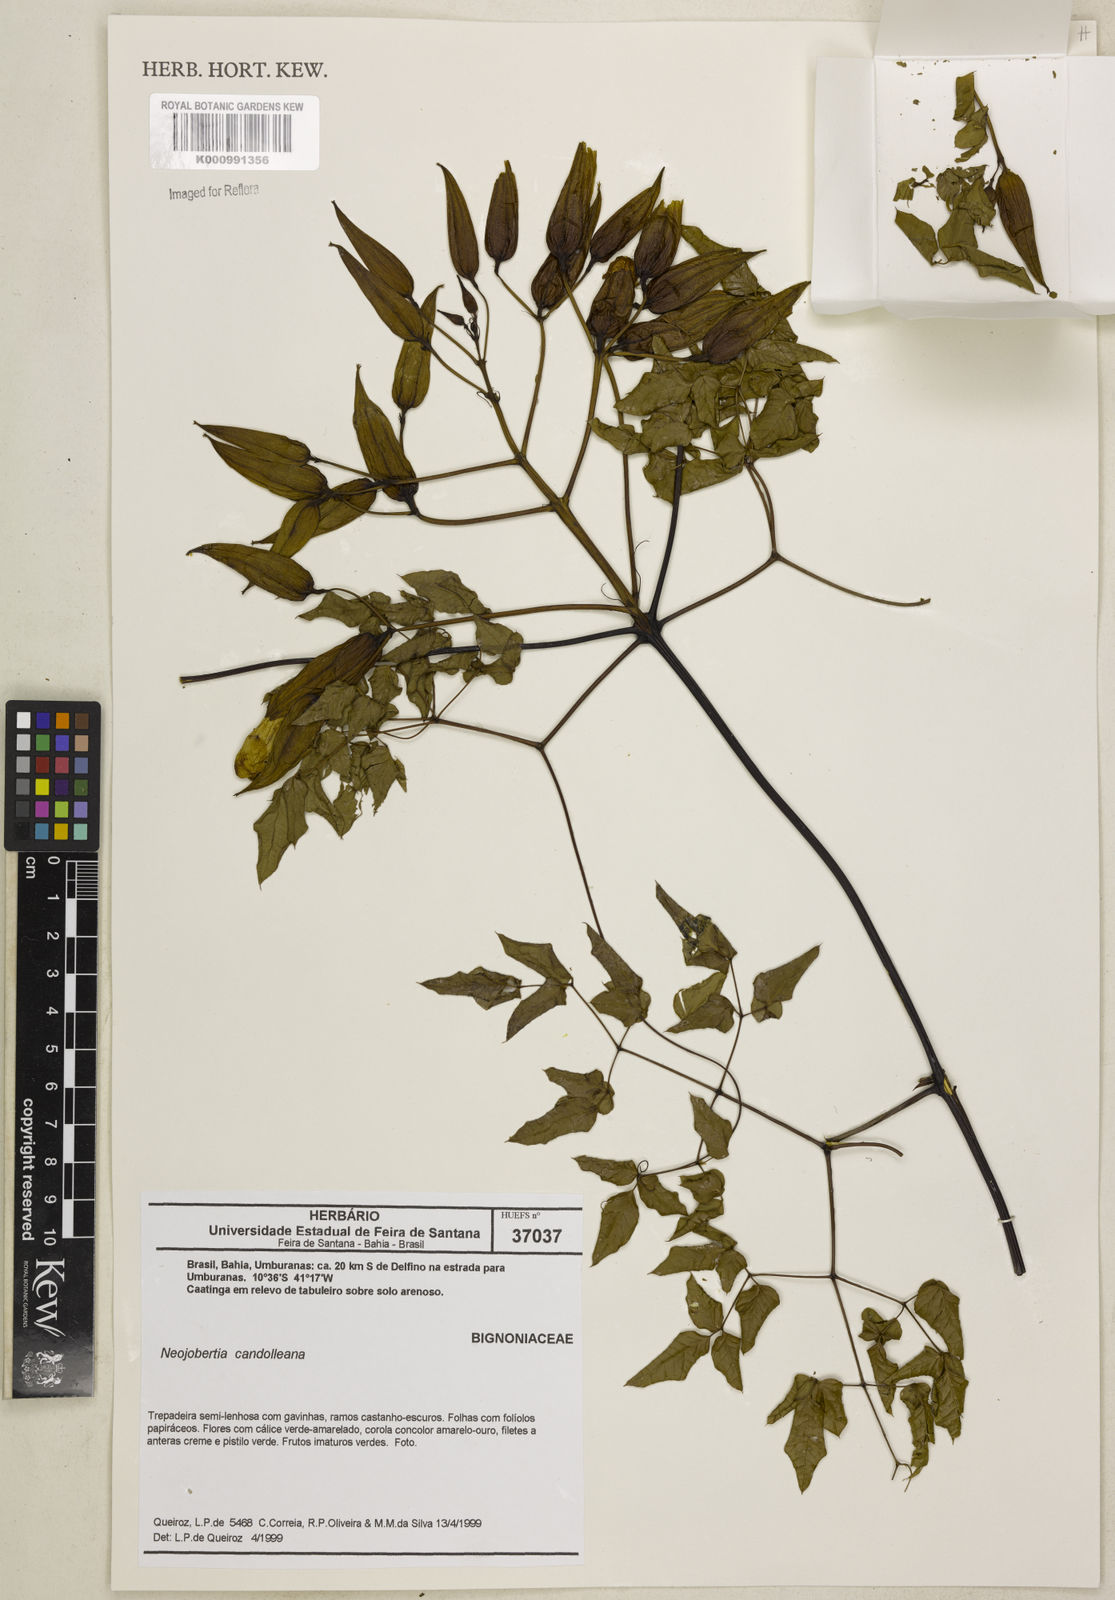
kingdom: Plantae
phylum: Tracheophyta
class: Magnoliopsida
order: Lamiales
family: Bignoniaceae
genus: Adenocalymma
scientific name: Adenocalymma candolleanum
